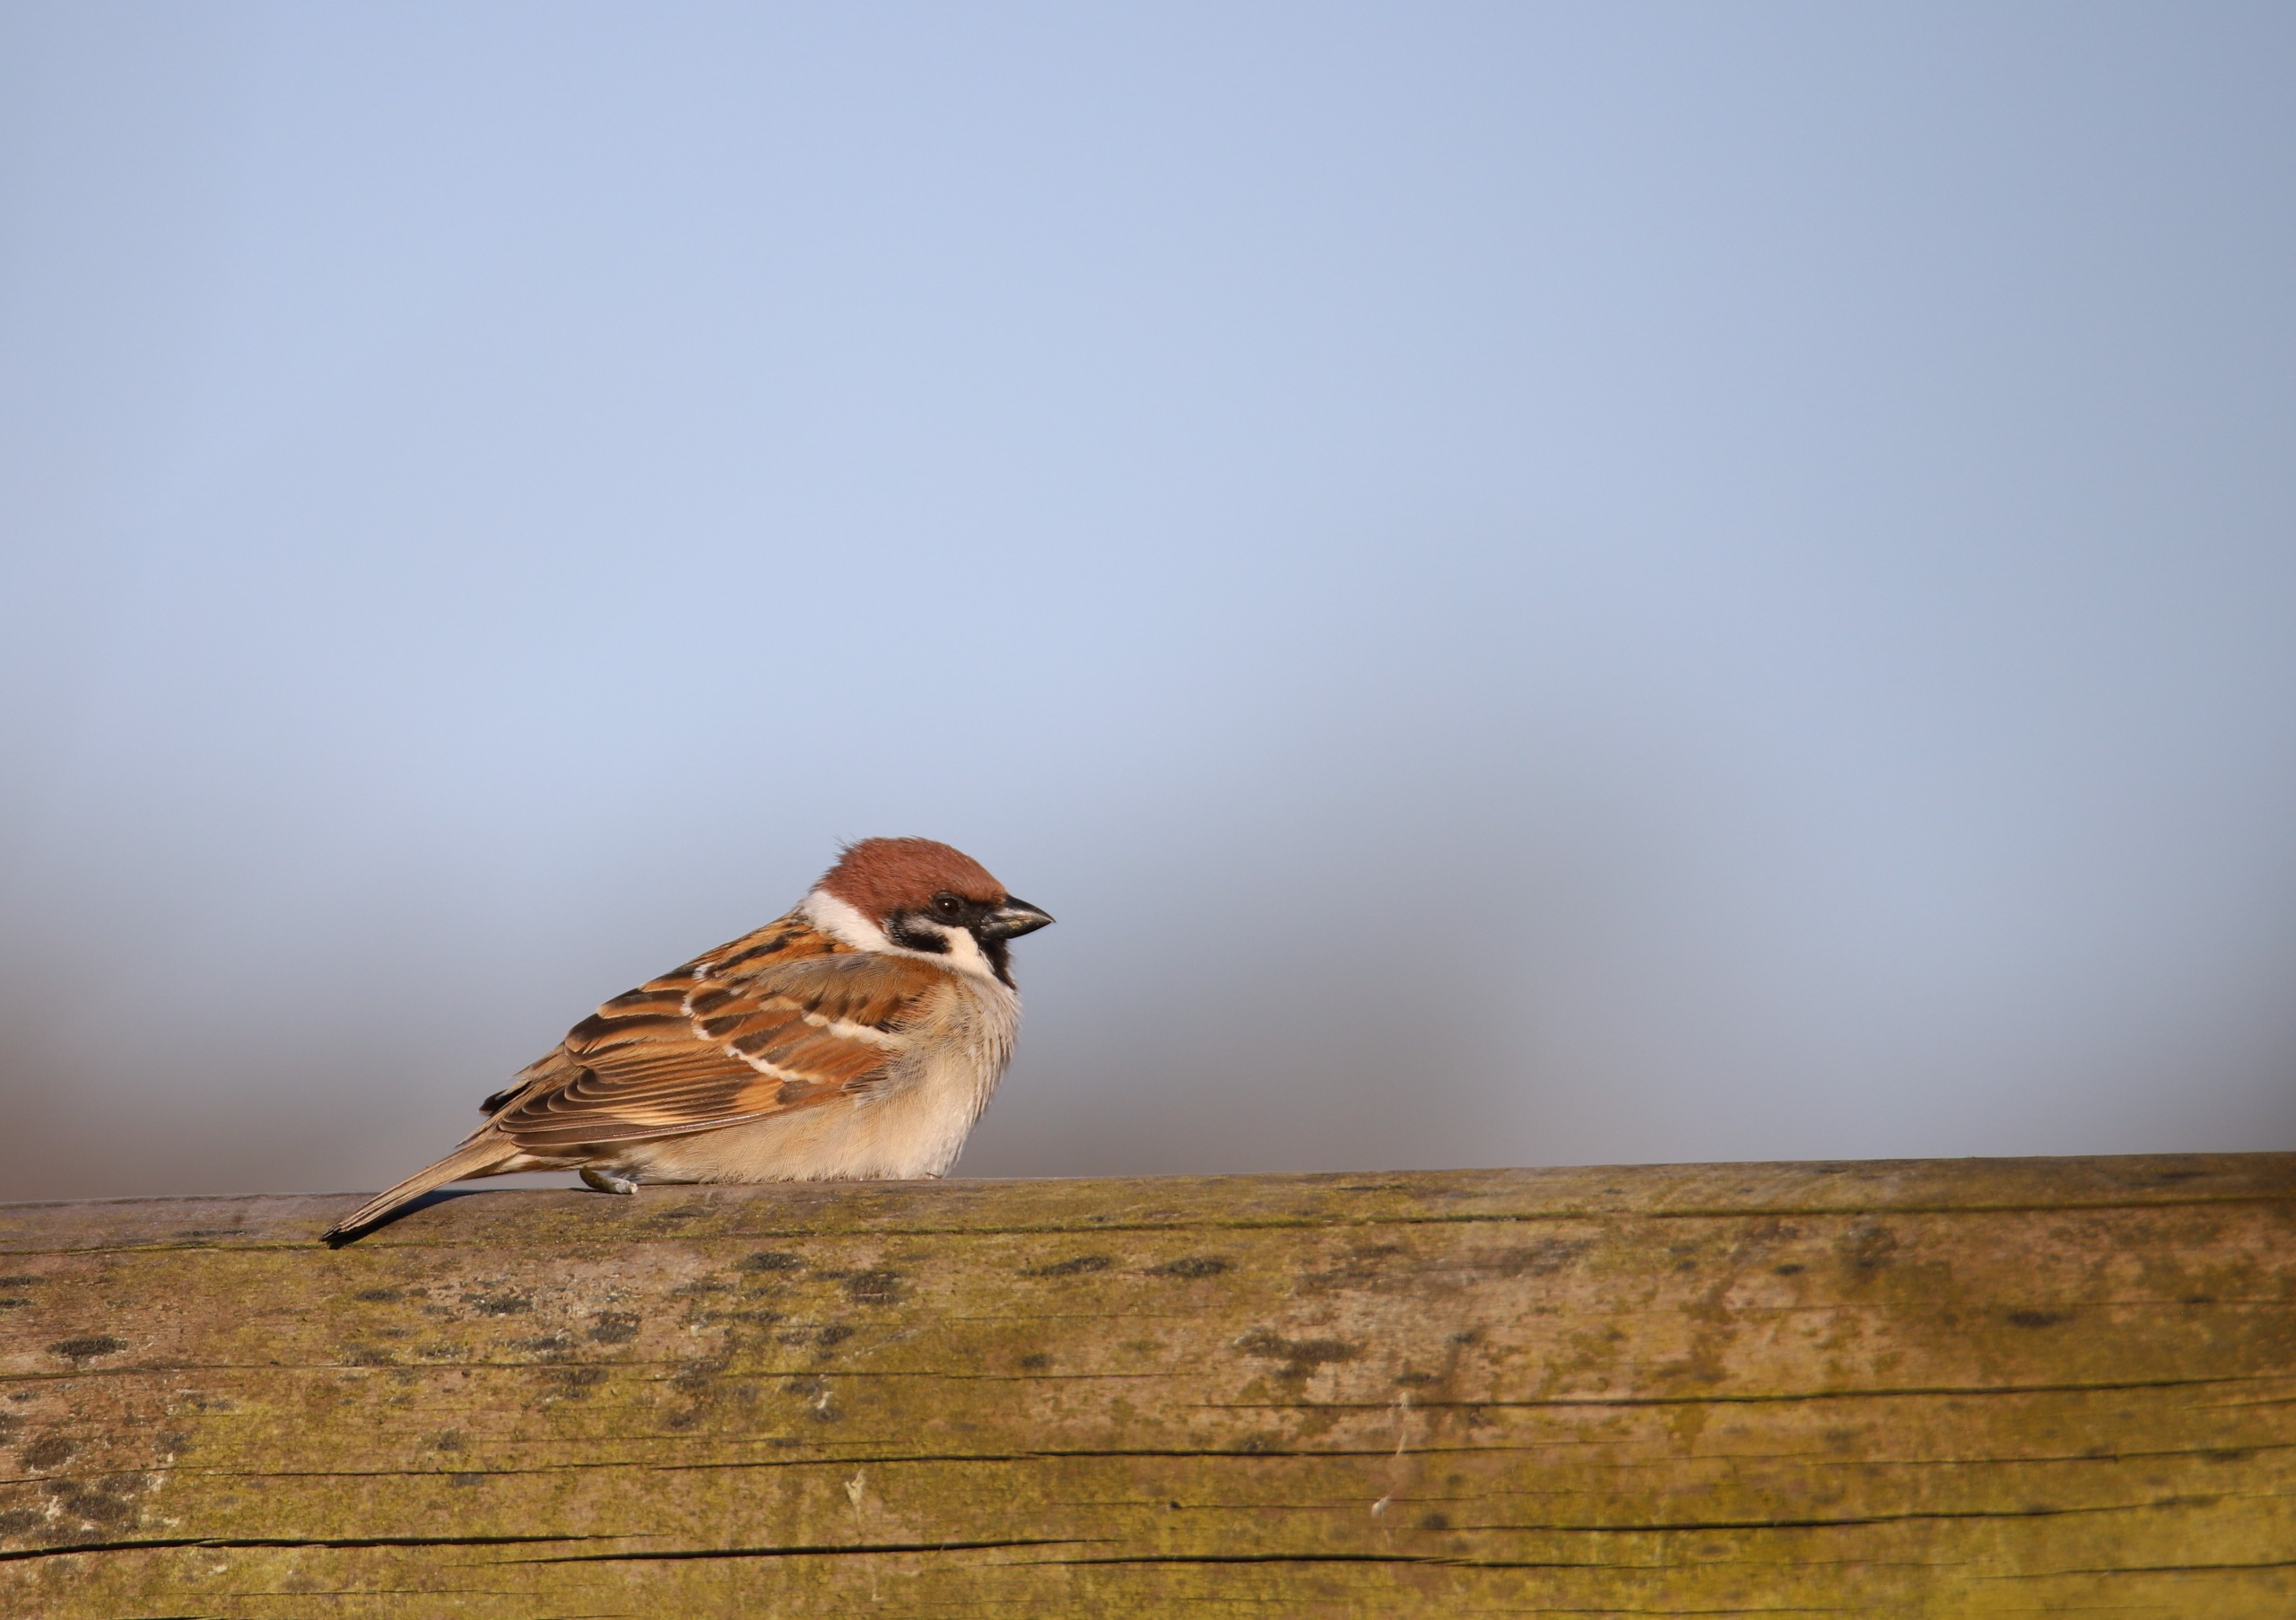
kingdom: Animalia
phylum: Chordata
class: Aves
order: Passeriformes
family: Passeridae
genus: Passer
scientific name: Passer montanus
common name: Skovspurv
